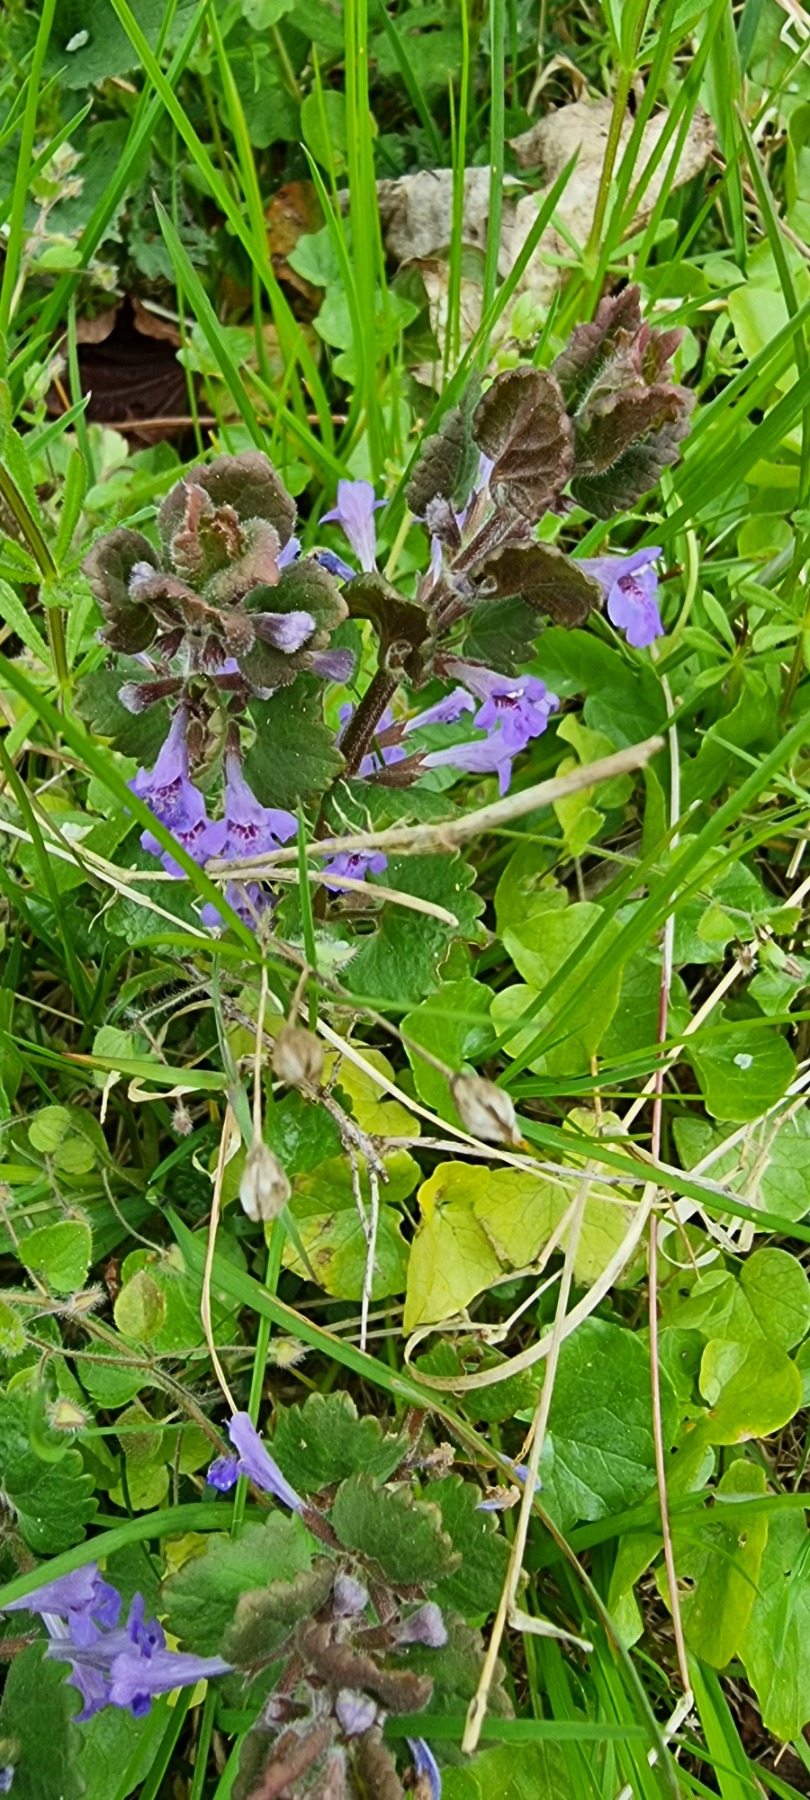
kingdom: Plantae
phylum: Tracheophyta
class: Magnoliopsida
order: Lamiales
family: Lamiaceae
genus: Glechoma
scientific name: Glechoma hederacea
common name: Korsknap
